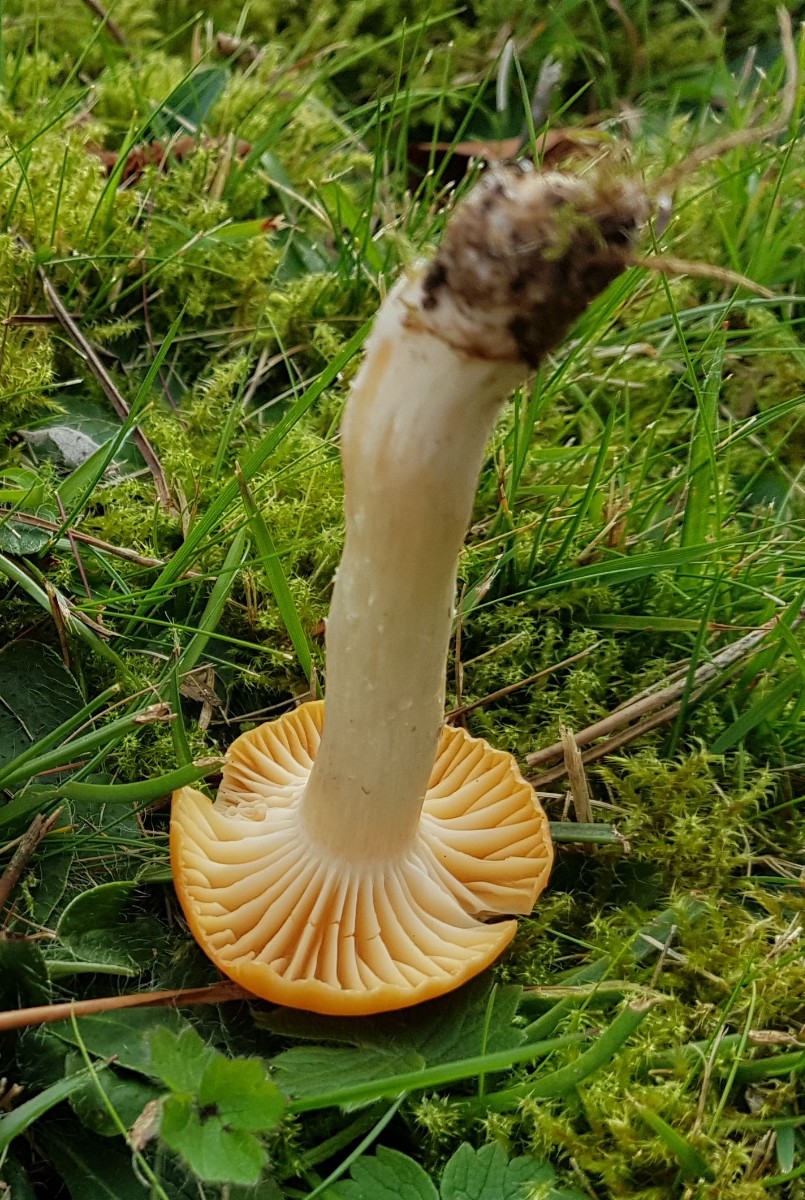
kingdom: Fungi
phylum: Basidiomycota
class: Agaricomycetes
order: Agaricales
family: Hygrophoraceae
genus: Cuphophyllus
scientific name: Cuphophyllus pratensis
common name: eng-vokshat
